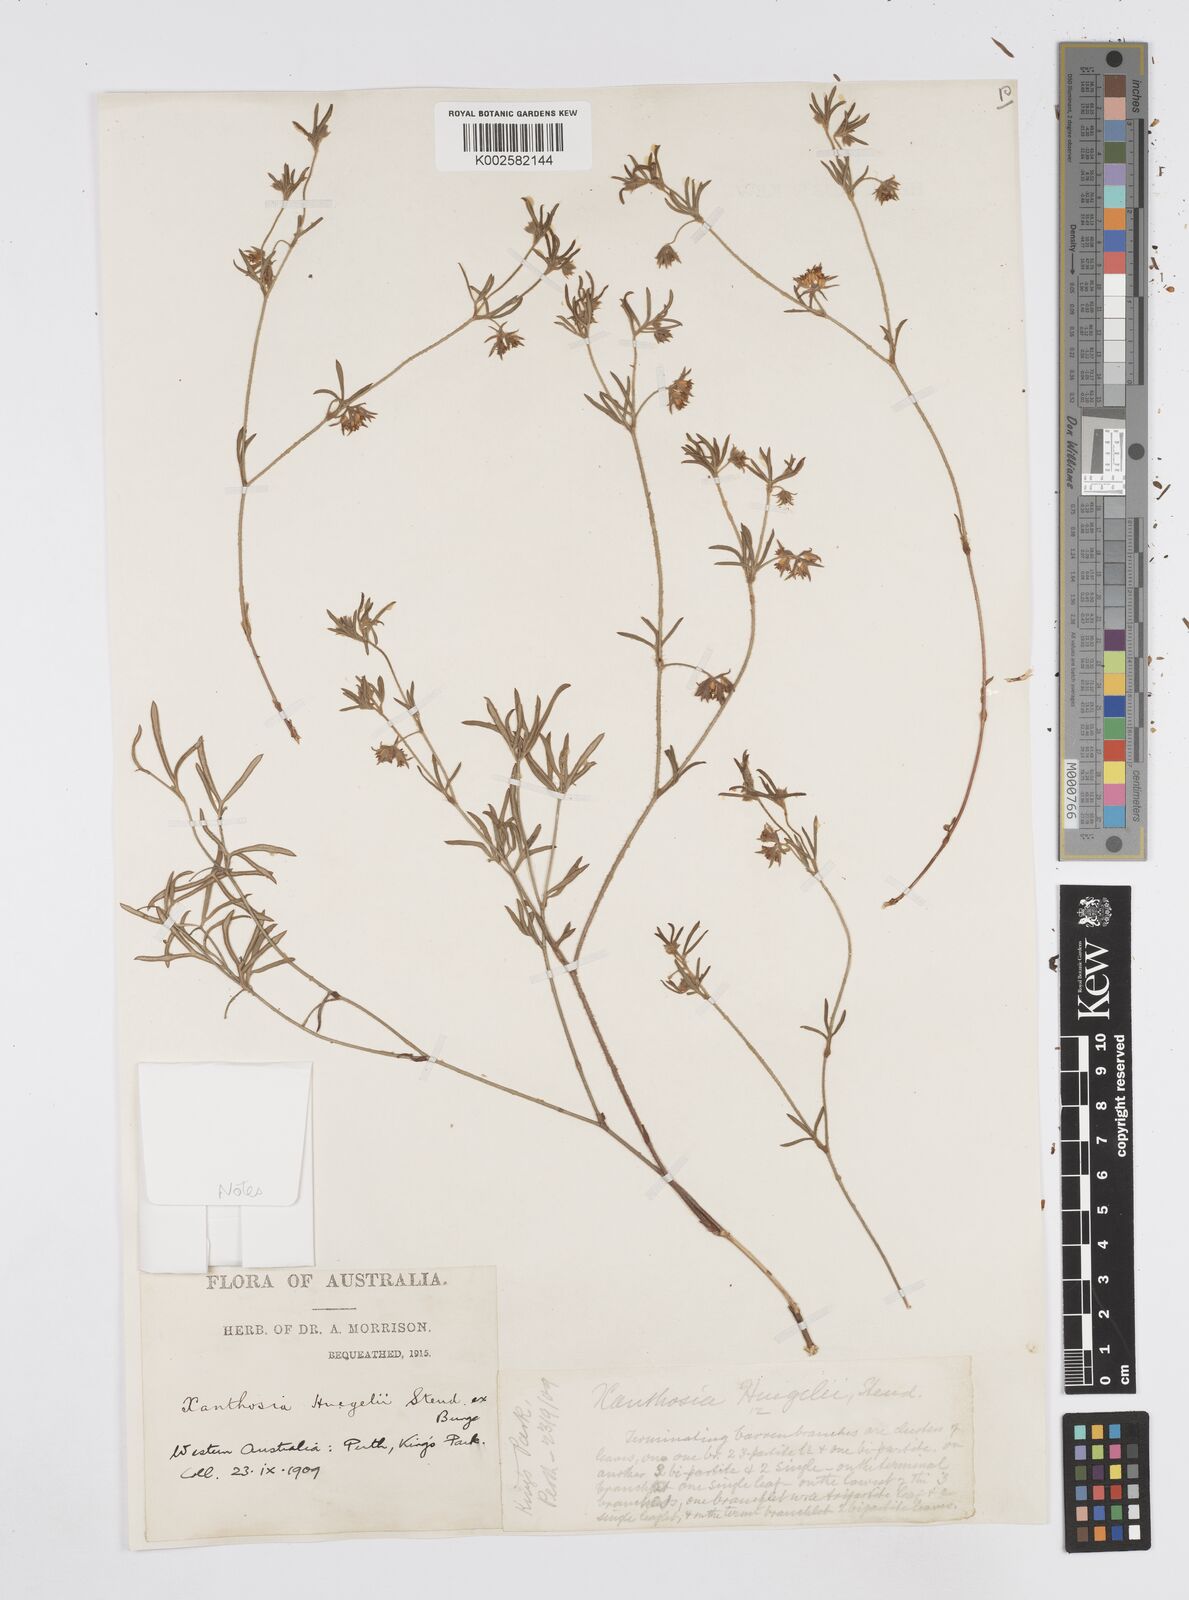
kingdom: Plantae
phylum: Tracheophyta
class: Magnoliopsida
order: Apiales
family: Apiaceae
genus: Xanthosia
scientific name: Xanthosia huegelii
